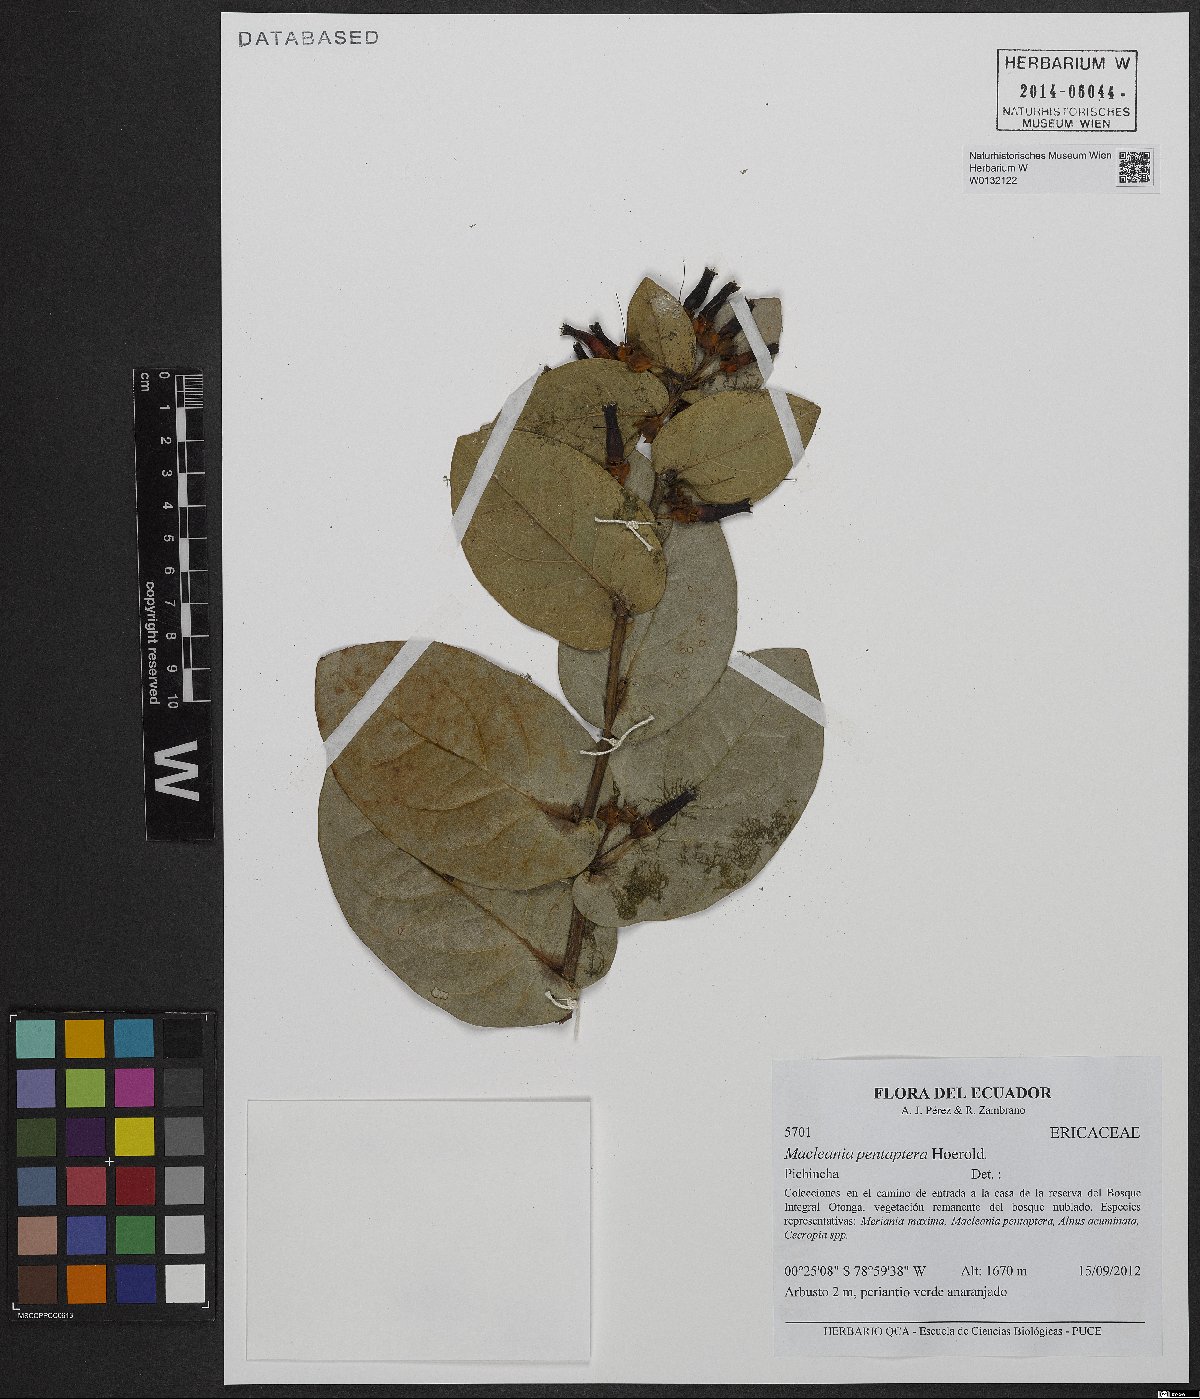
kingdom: Plantae
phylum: Tracheophyta
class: Magnoliopsida
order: Ericales
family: Ericaceae
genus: Macleania
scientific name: Macleania pentaptera
